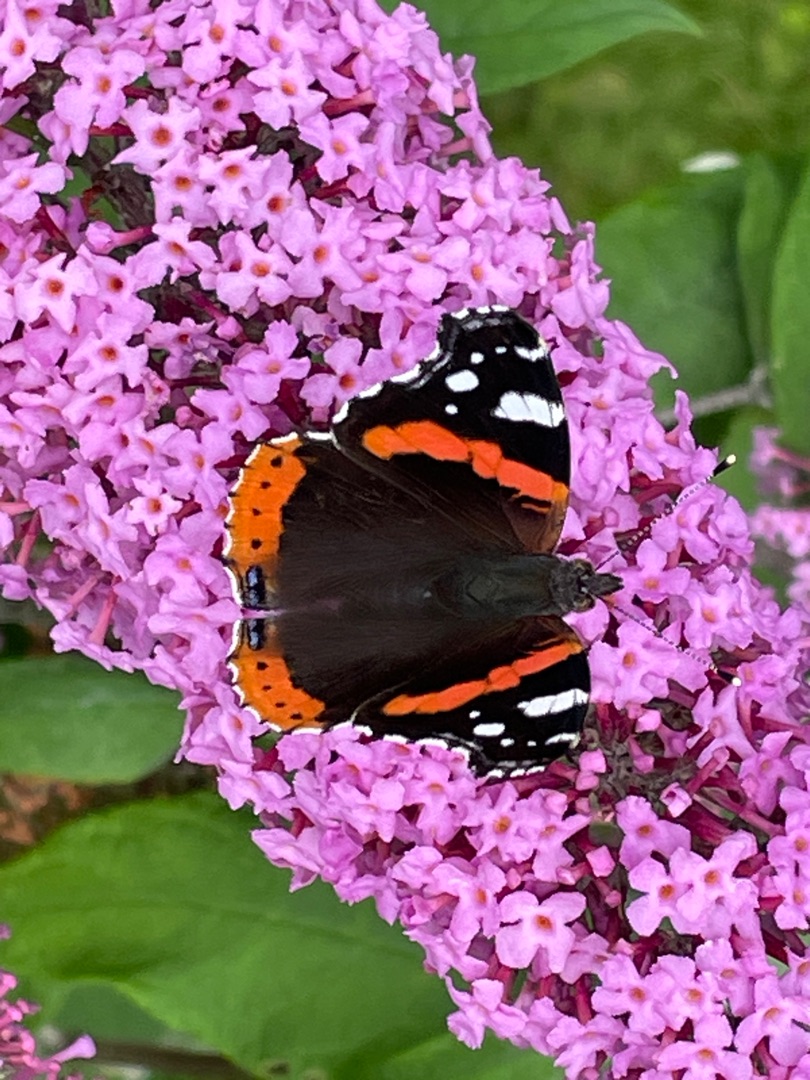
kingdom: Animalia
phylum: Arthropoda
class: Insecta
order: Lepidoptera
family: Nymphalidae
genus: Vanessa
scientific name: Vanessa atalanta
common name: Admiral
